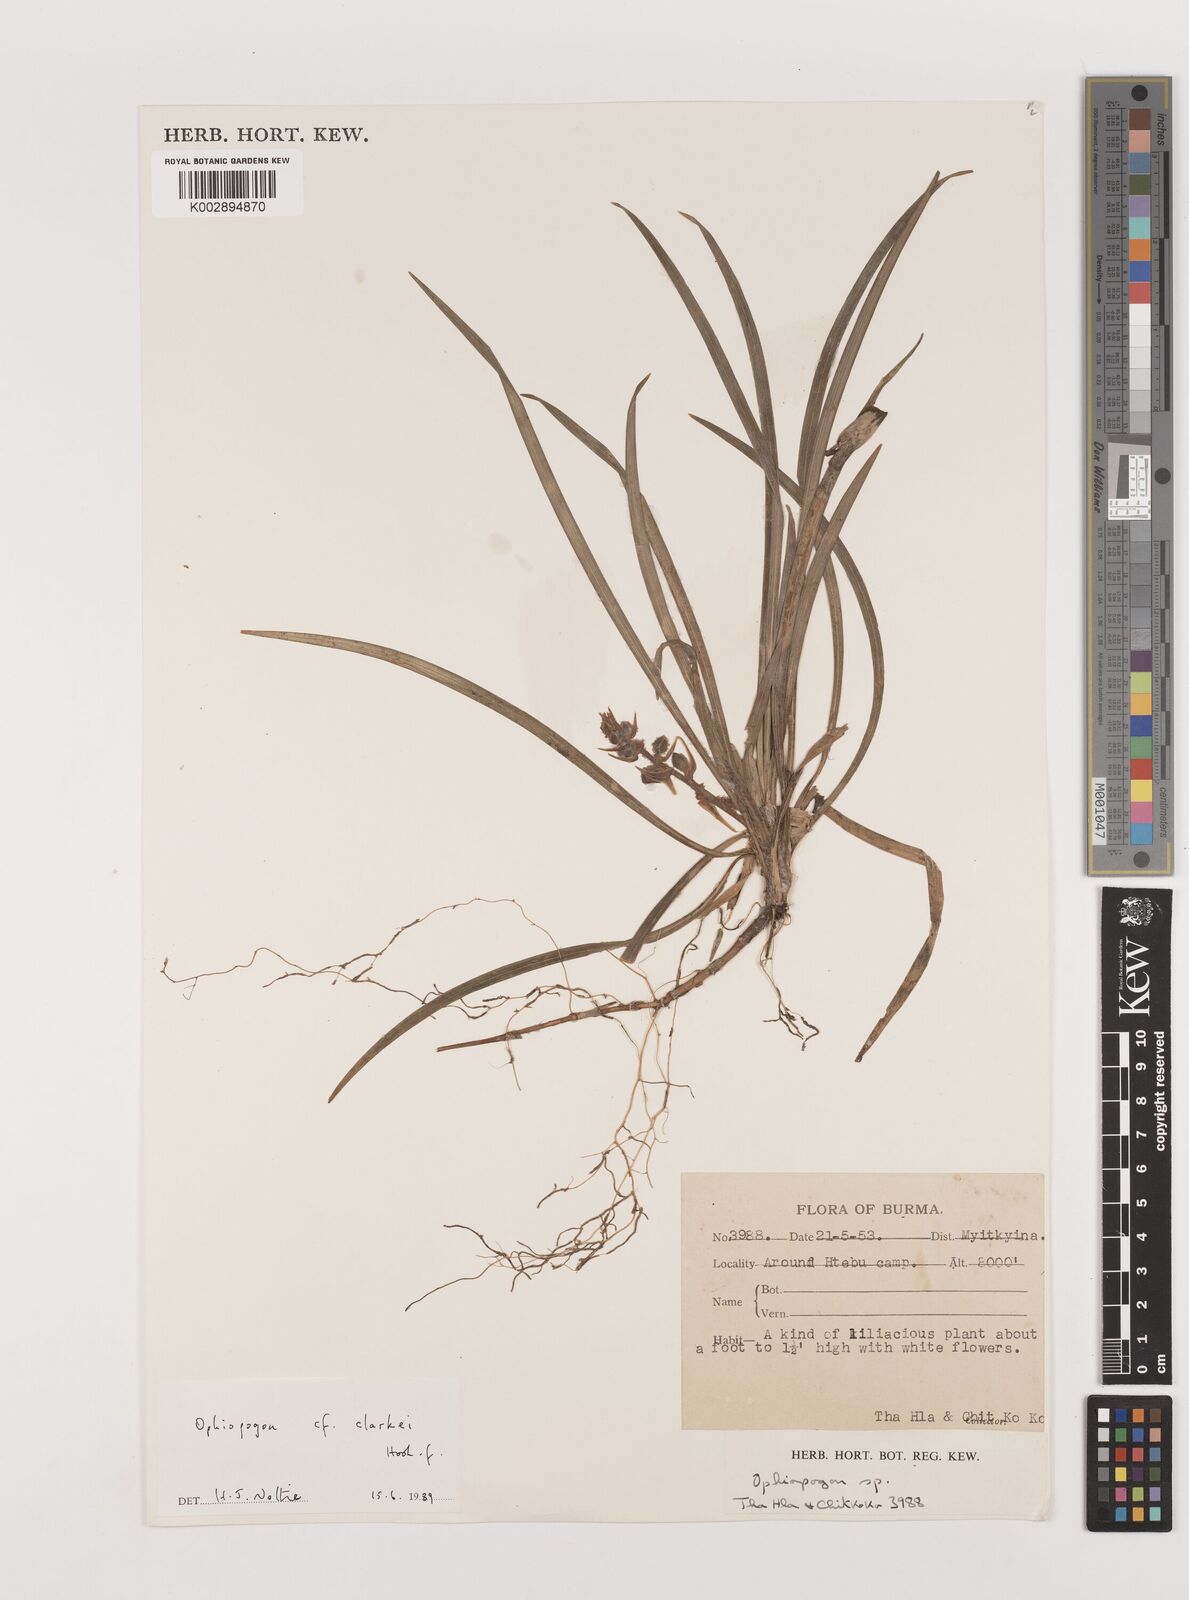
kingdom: Plantae
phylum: Tracheophyta
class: Liliopsida
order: Asparagales
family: Asparagaceae
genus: Ophiopogon
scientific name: Ophiopogon clarkei
